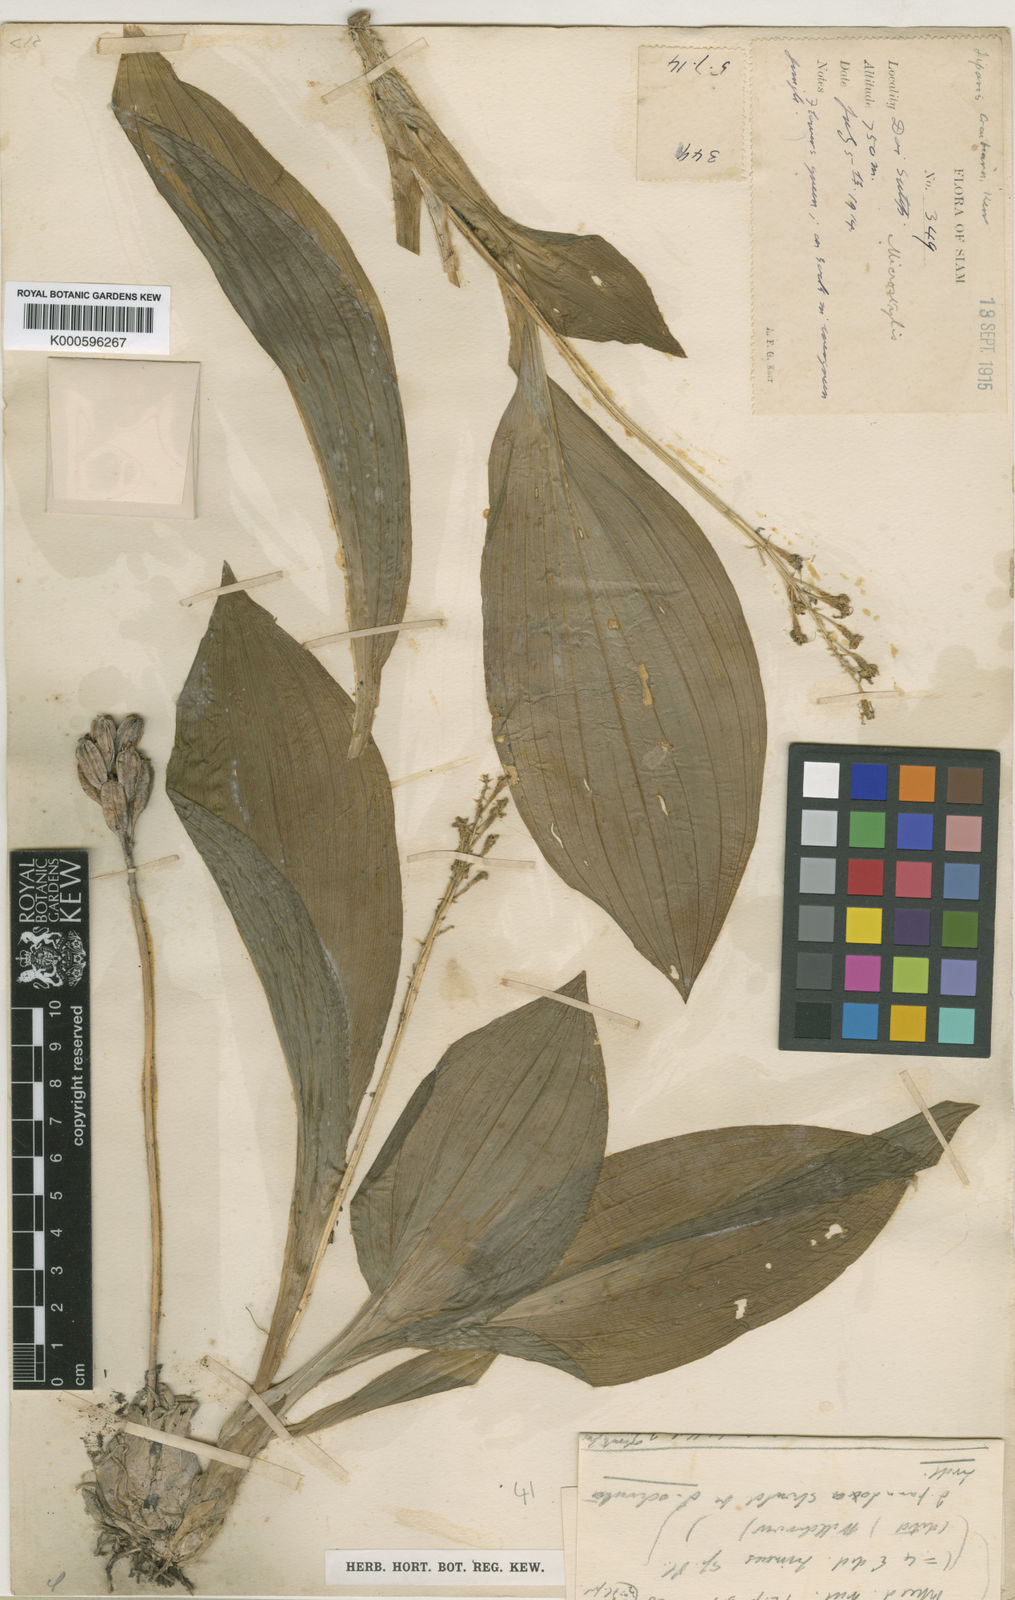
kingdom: Plantae
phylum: Tracheophyta
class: Liliopsida
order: Asparagales
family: Orchidaceae
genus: Liparis
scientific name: Liparis regnieri
